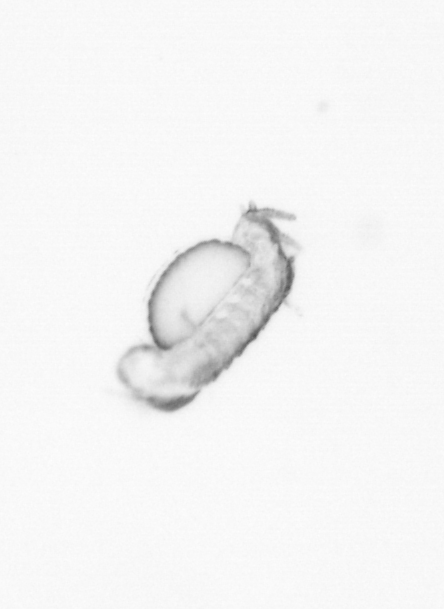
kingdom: Animalia
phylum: Annelida
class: Polychaeta
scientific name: Polychaeta
